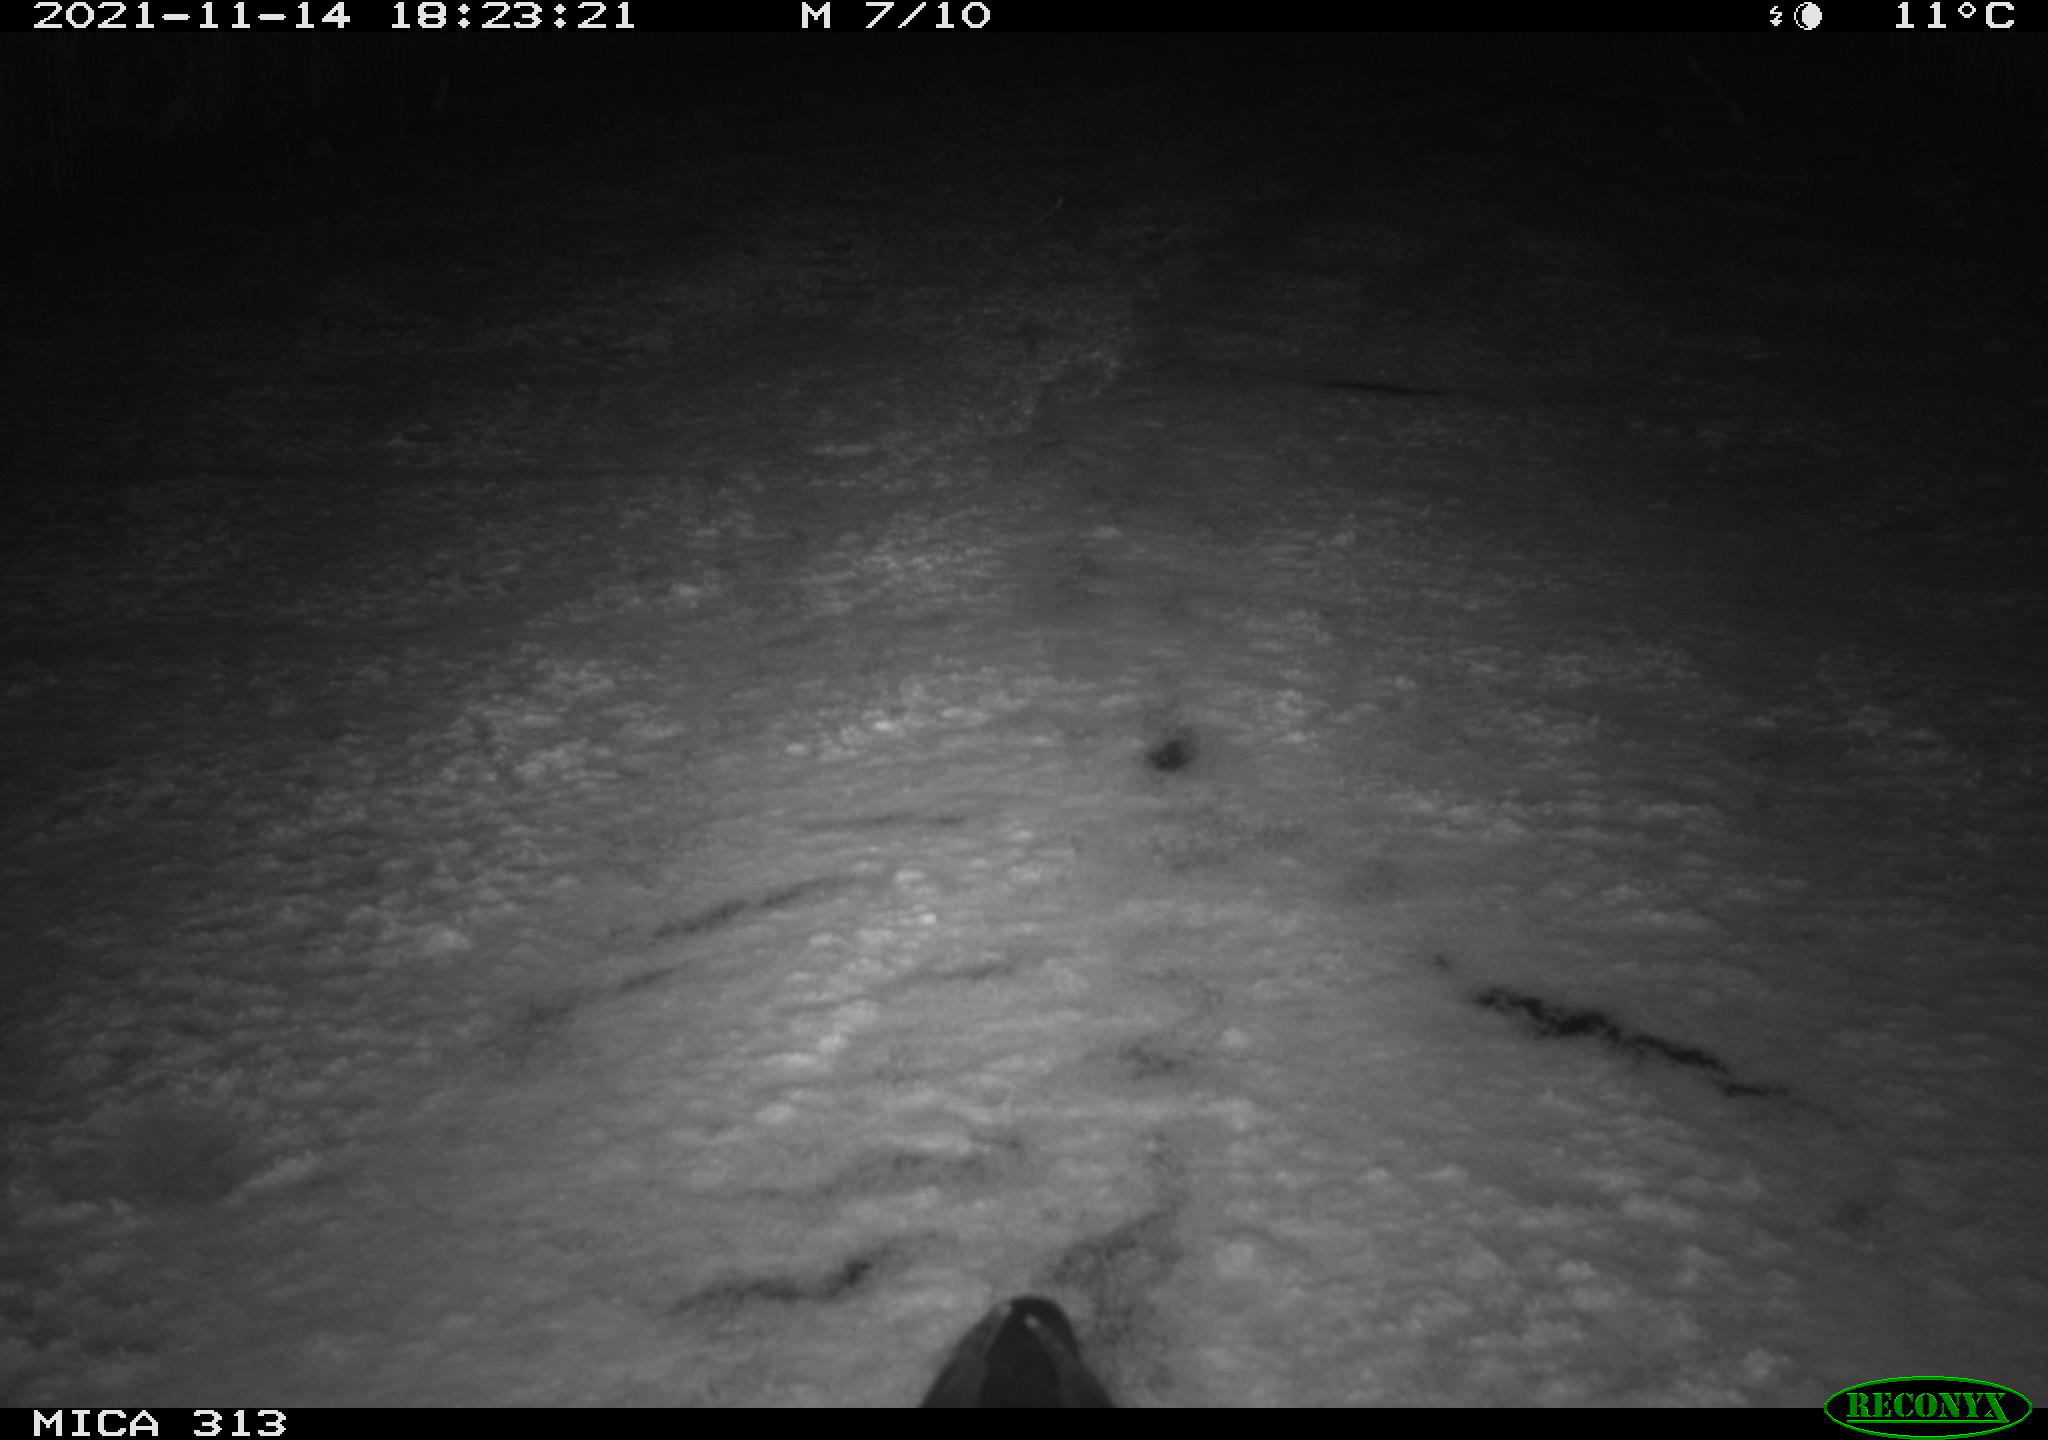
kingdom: Animalia
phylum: Chordata
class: Aves
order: Gruiformes
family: Rallidae
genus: Gallinula
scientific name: Gallinula chloropus
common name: Common moorhen
